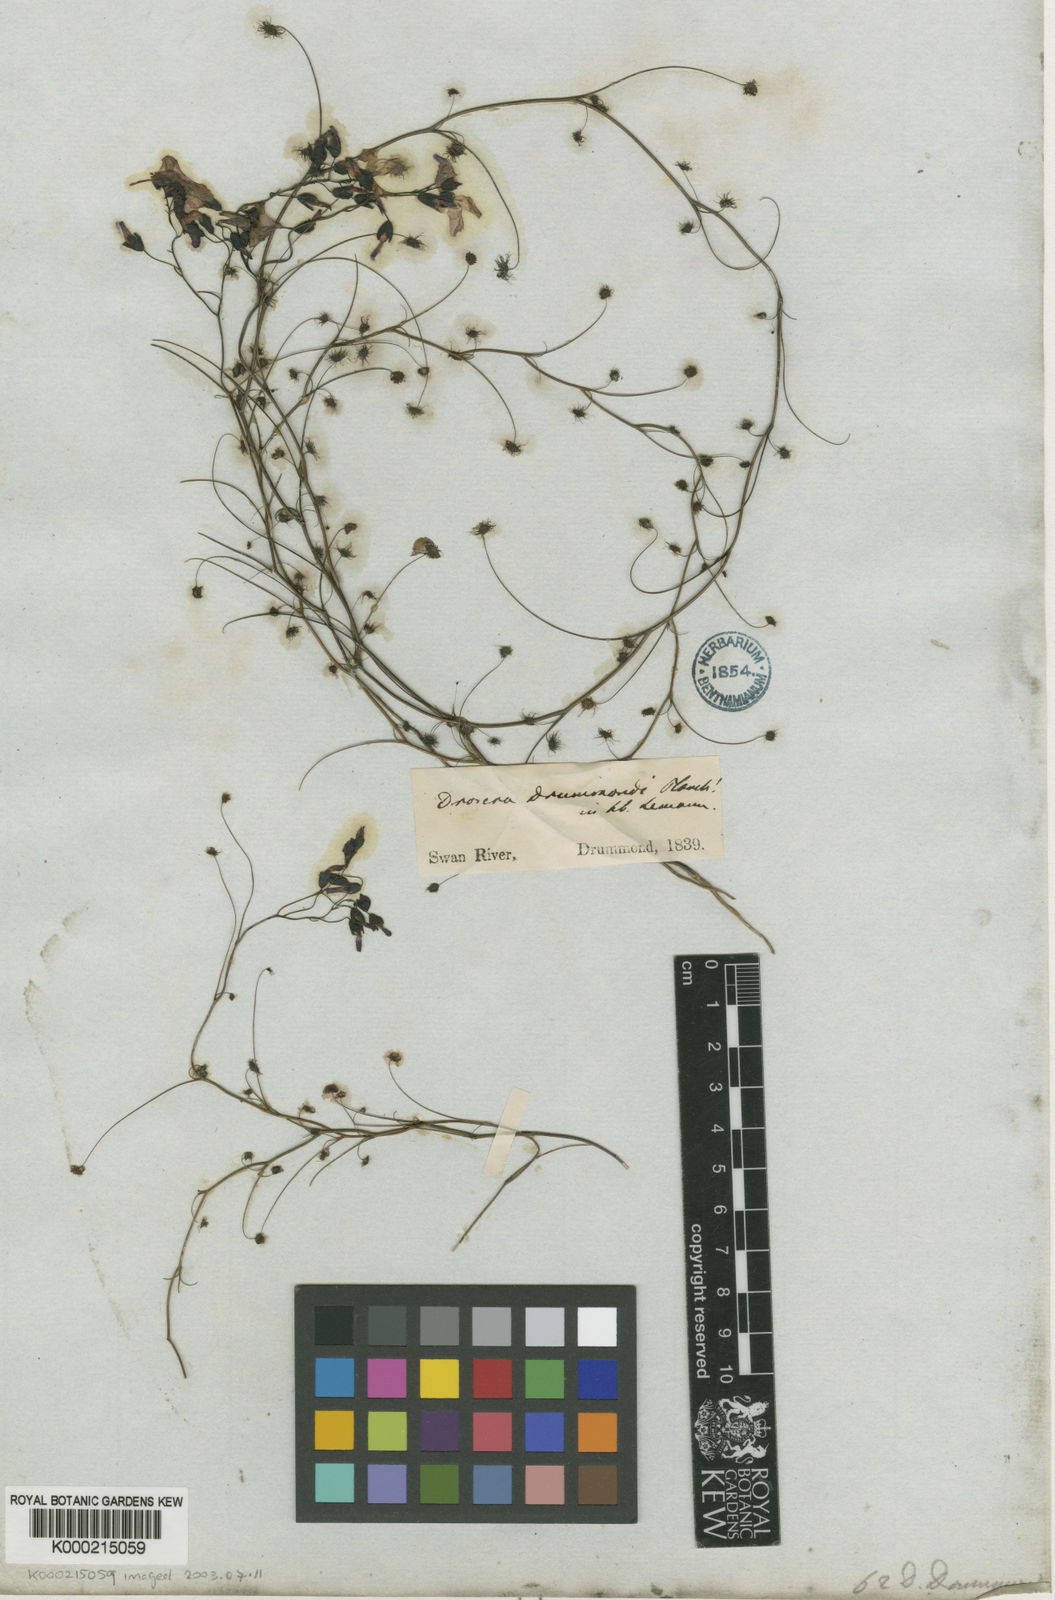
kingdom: Plantae
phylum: Tracheophyta
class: Magnoliopsida
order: Caryophyllales
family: Droseraceae
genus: Drosera
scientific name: Drosera
